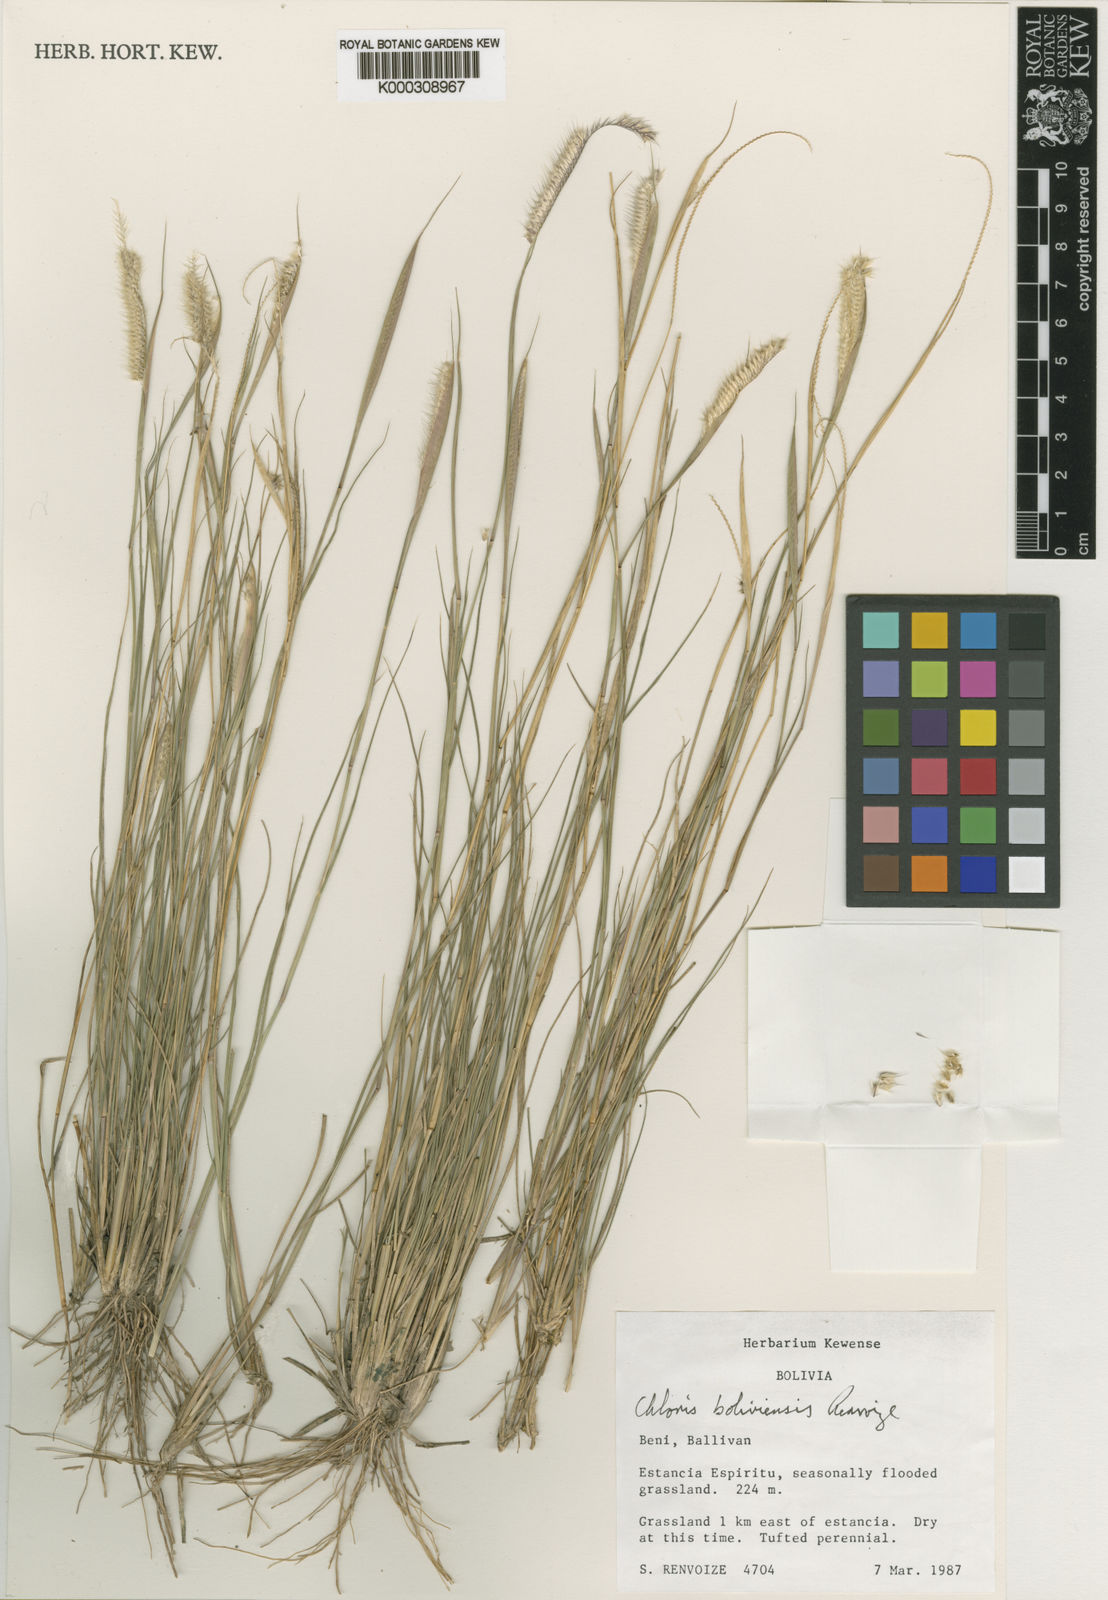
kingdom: Plantae
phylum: Tracheophyta
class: Liliopsida
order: Poales
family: Poaceae
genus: Chloris
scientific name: Chloris boliviensis
